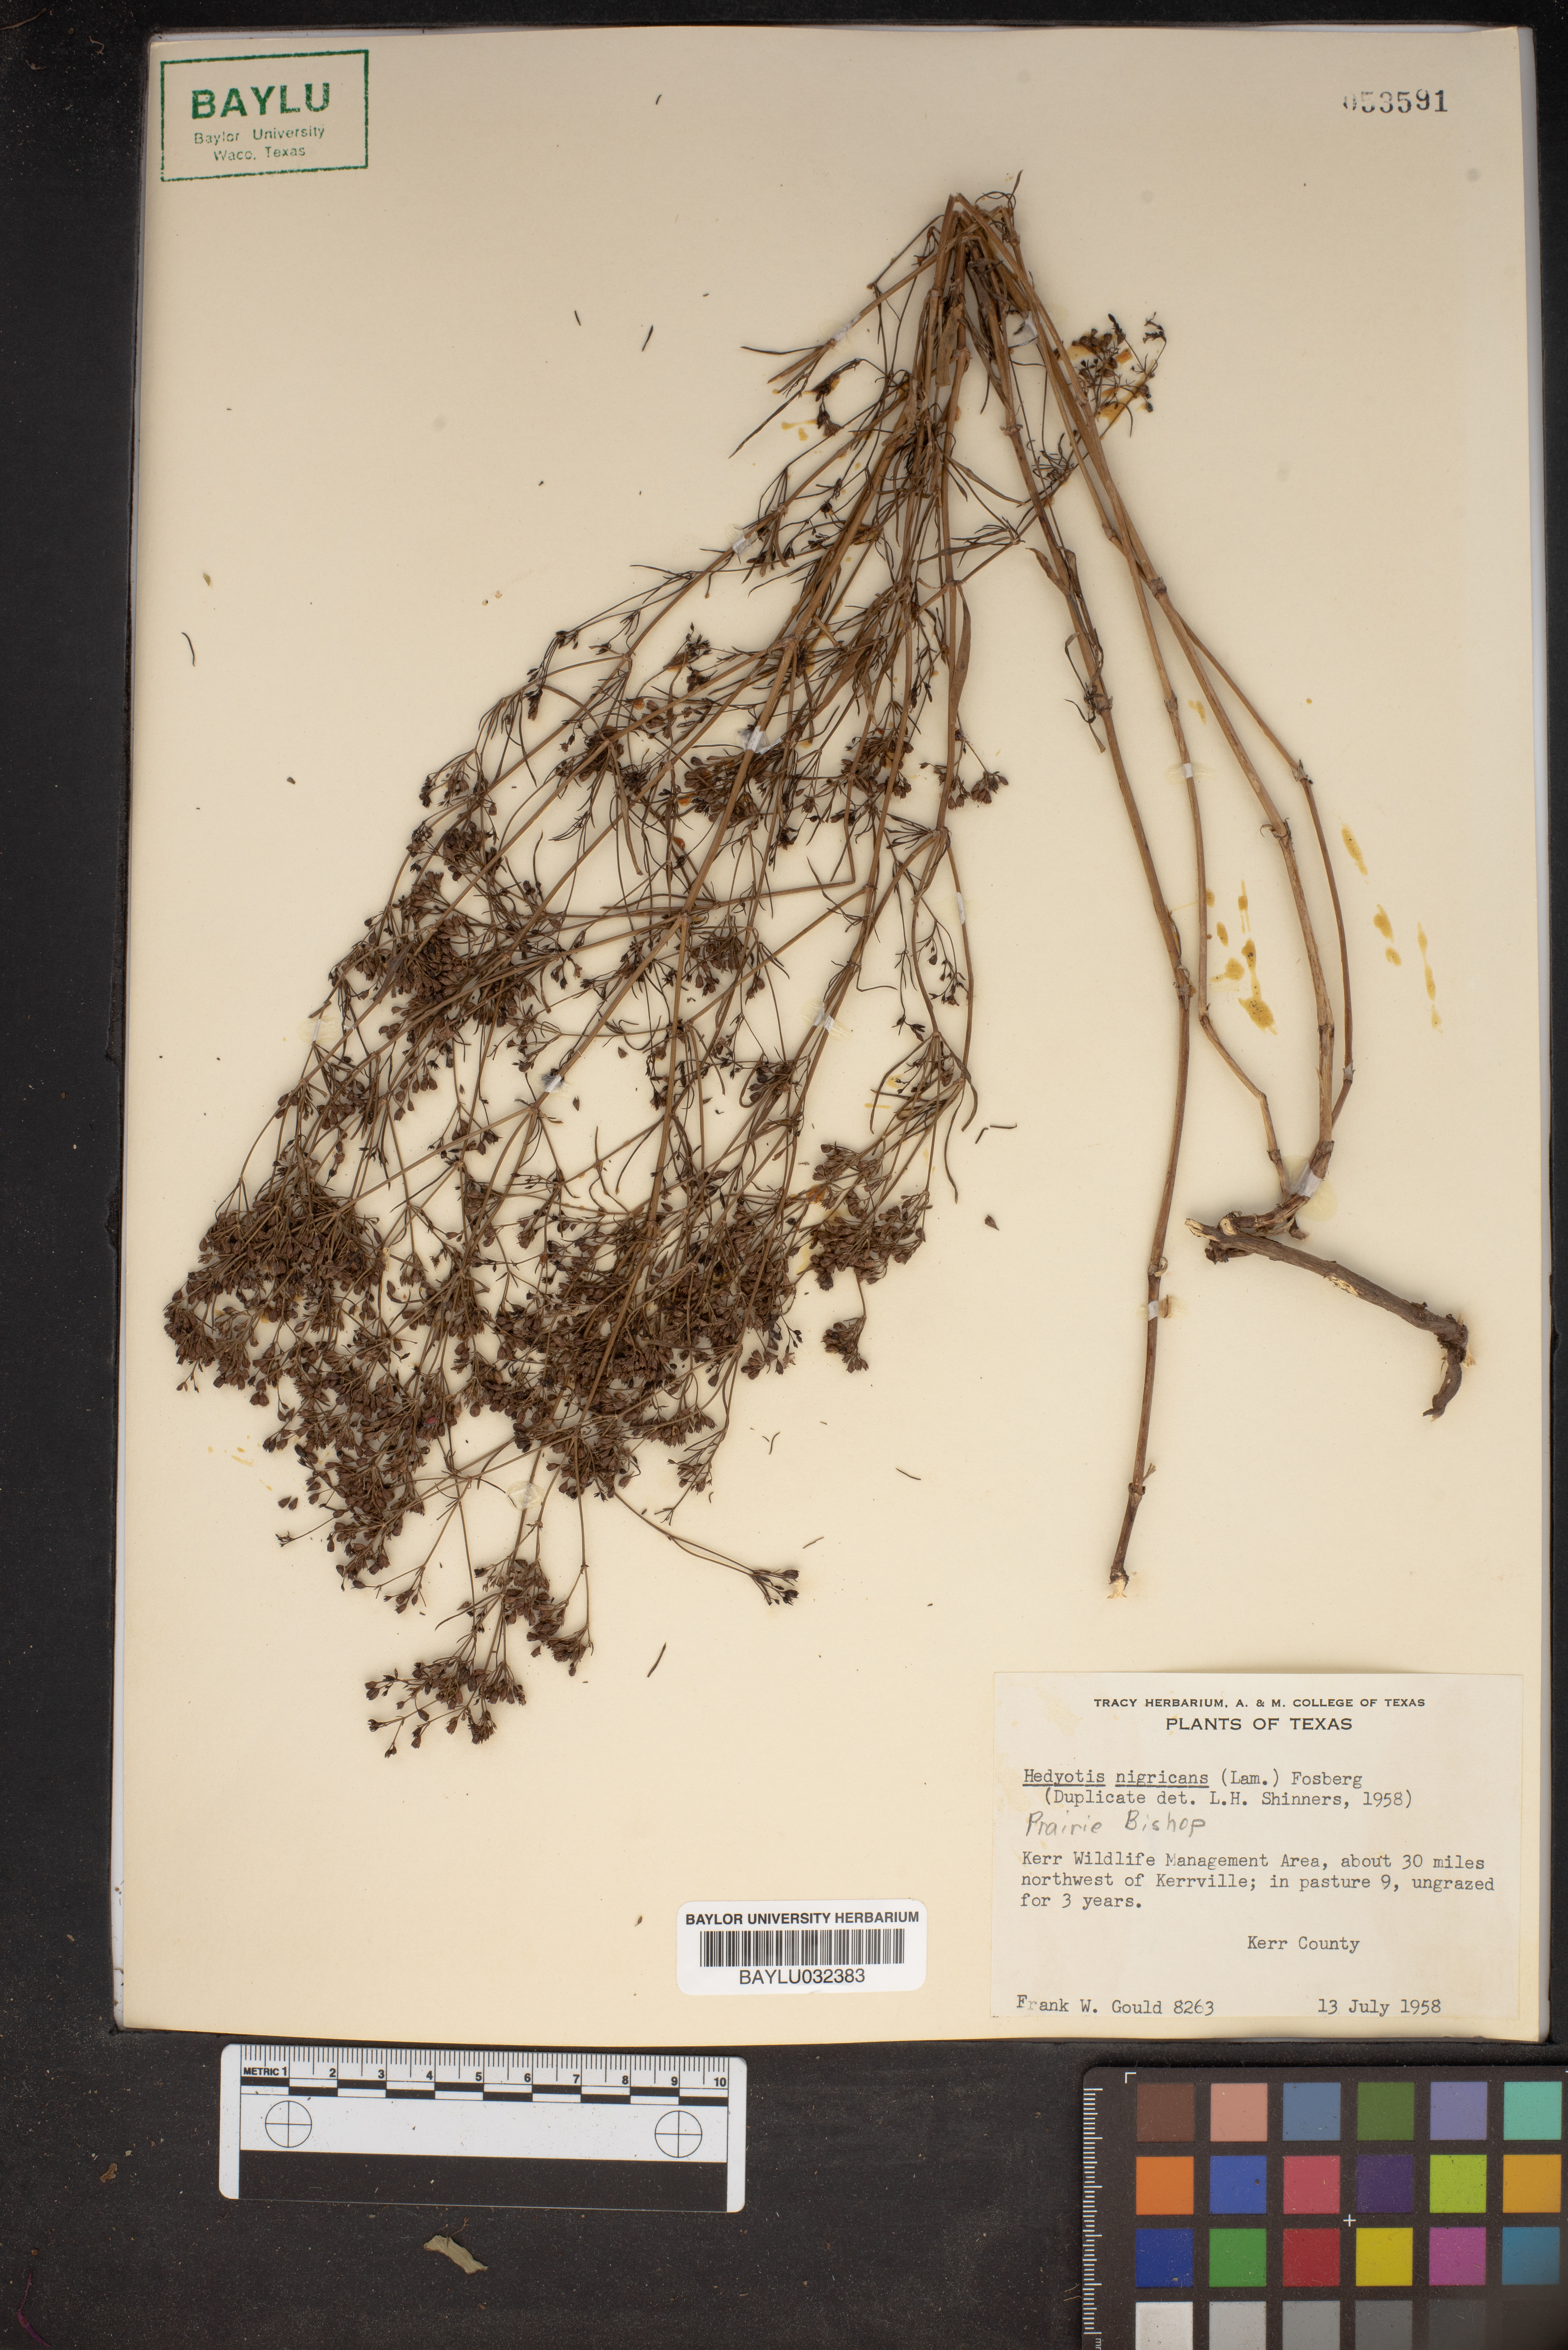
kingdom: Plantae
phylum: Tracheophyta
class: Magnoliopsida
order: Gentianales
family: Rubiaceae
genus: Stenaria
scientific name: Stenaria nigricans
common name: Diamondflowers
